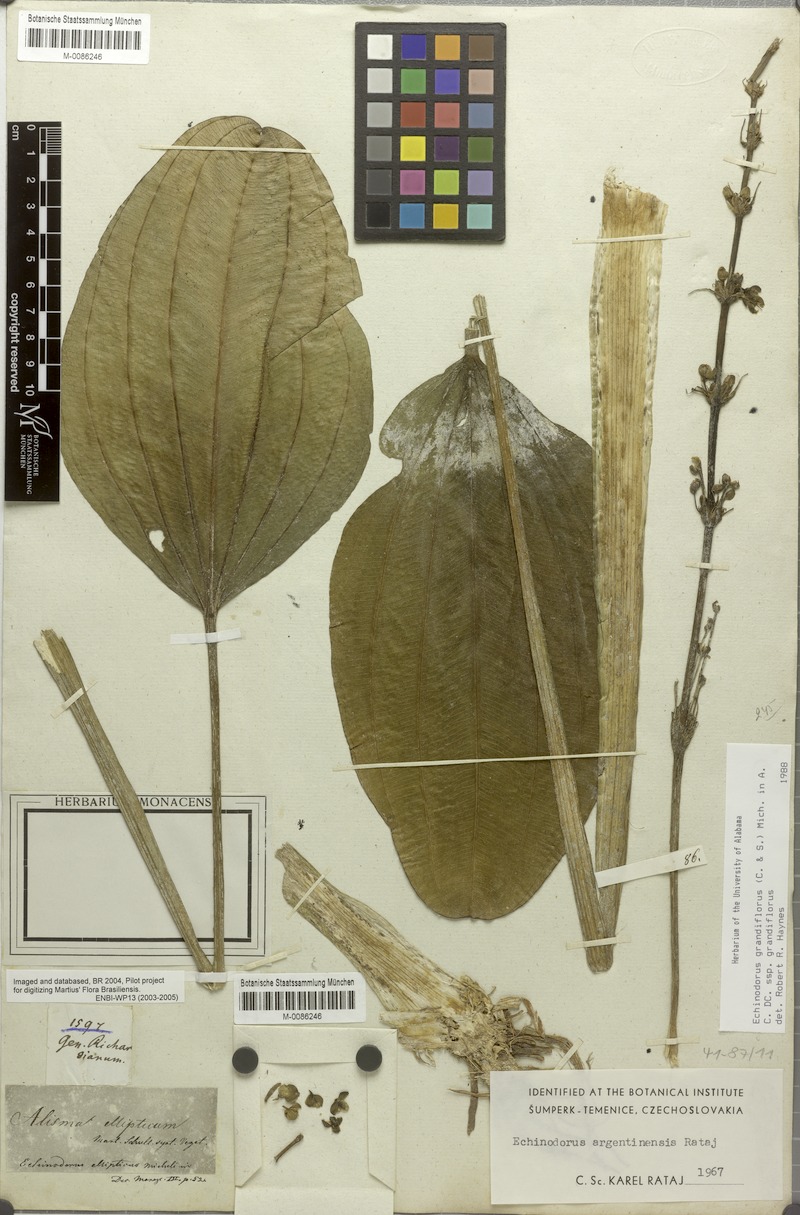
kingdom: Plantae
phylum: Tracheophyta
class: Liliopsida
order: Alismatales
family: Alismataceae
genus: Aquarius
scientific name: Aquarius palifolius
